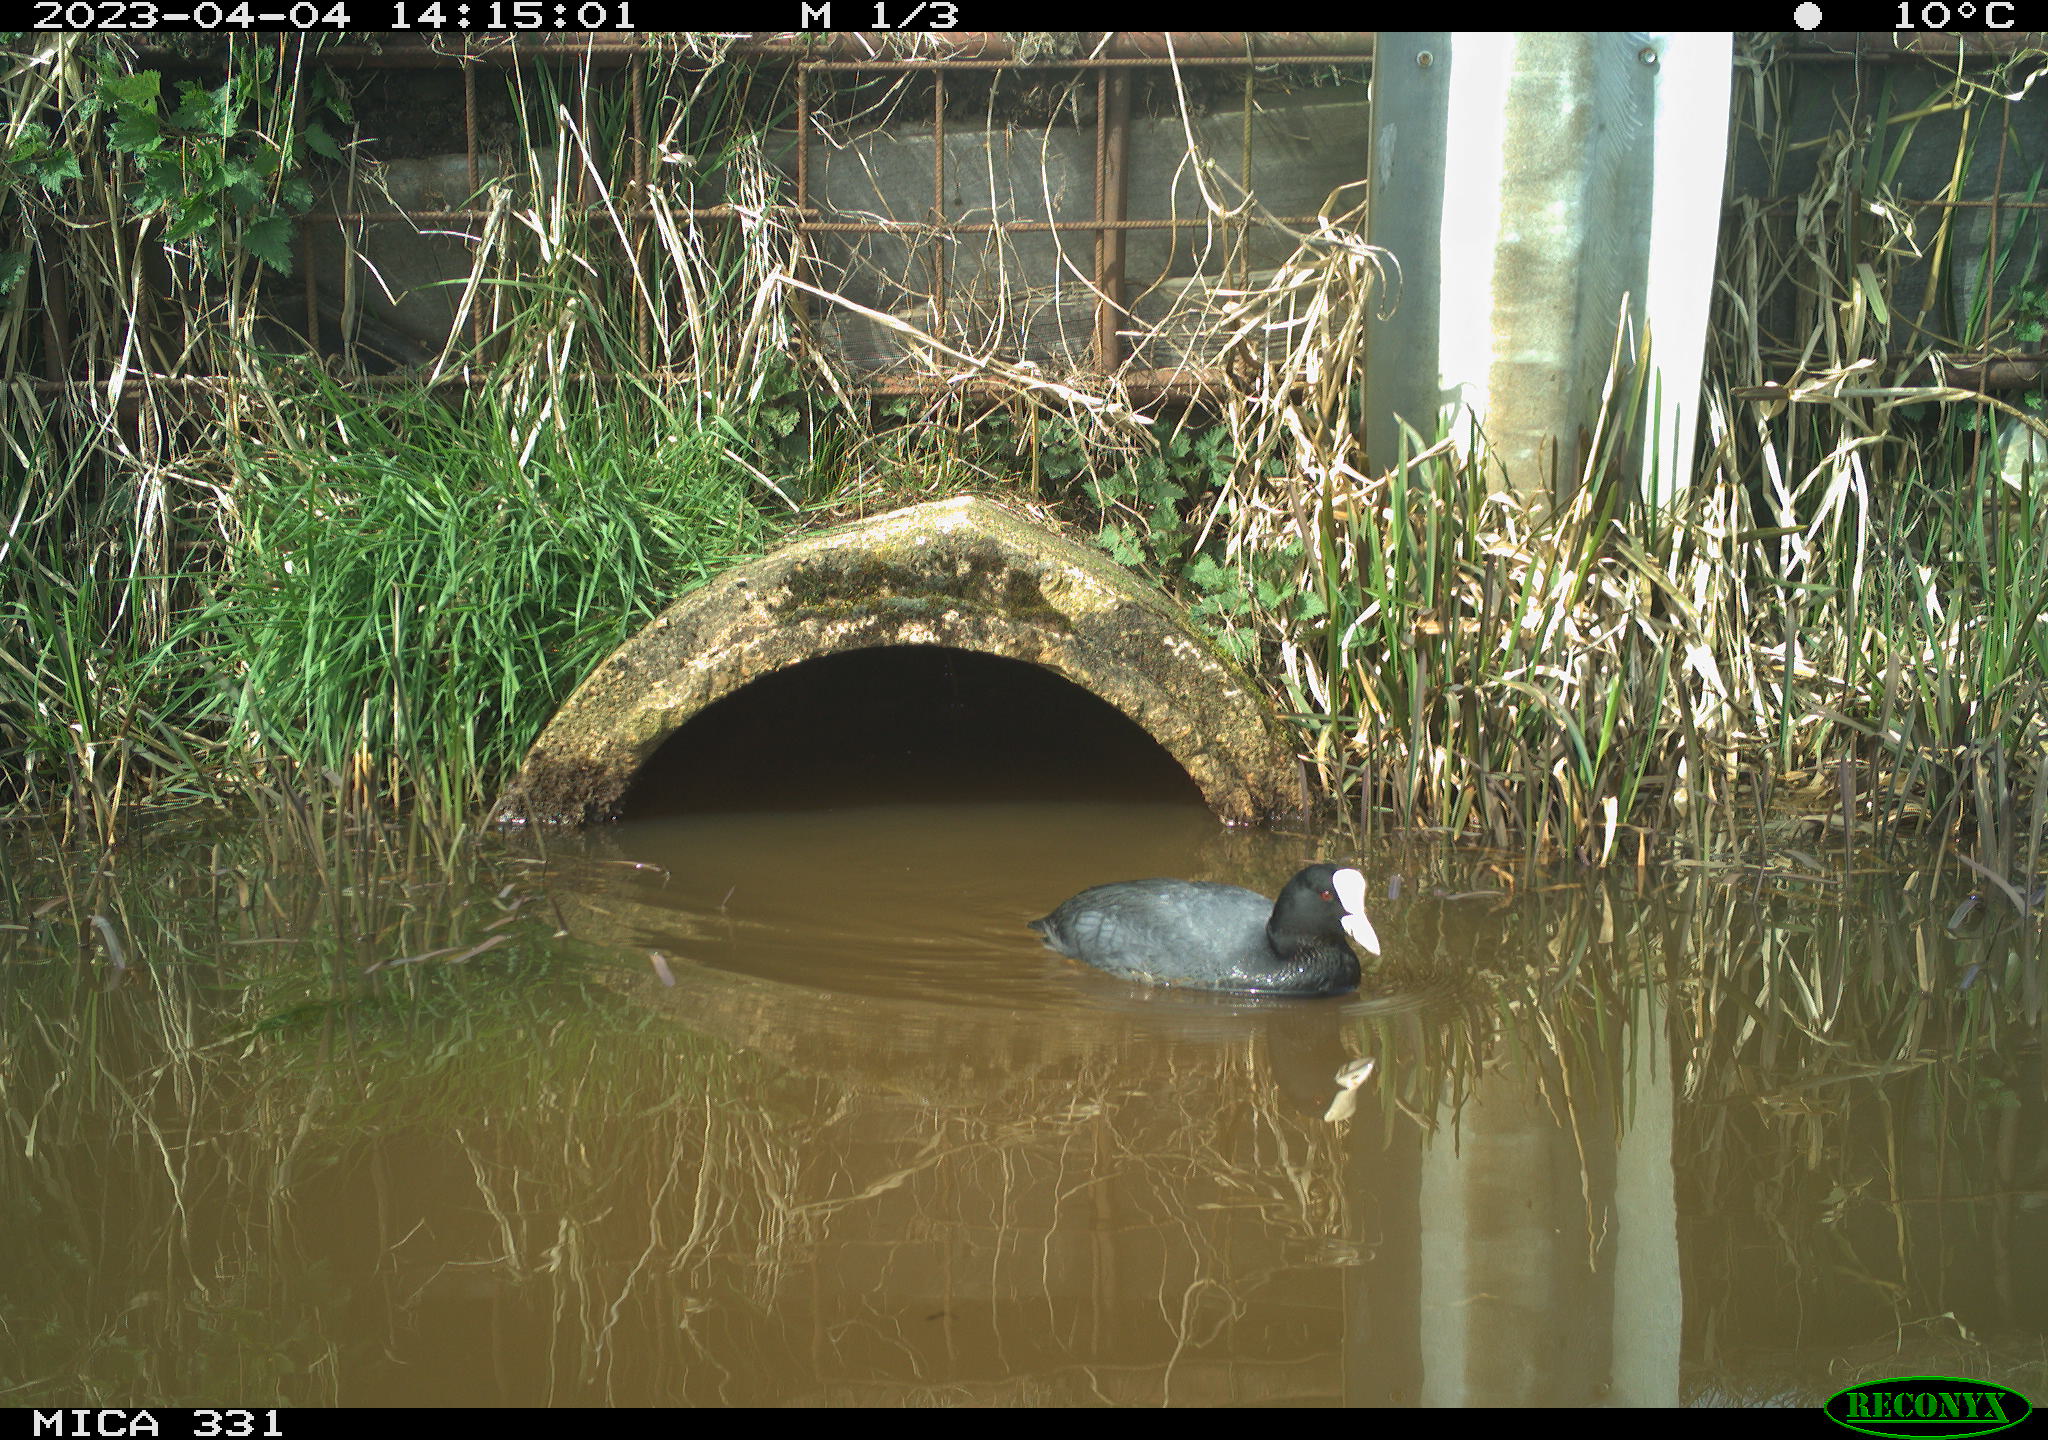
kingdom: Animalia
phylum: Chordata
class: Aves
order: Gruiformes
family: Rallidae
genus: Fulica
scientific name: Fulica atra
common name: Eurasian coot
